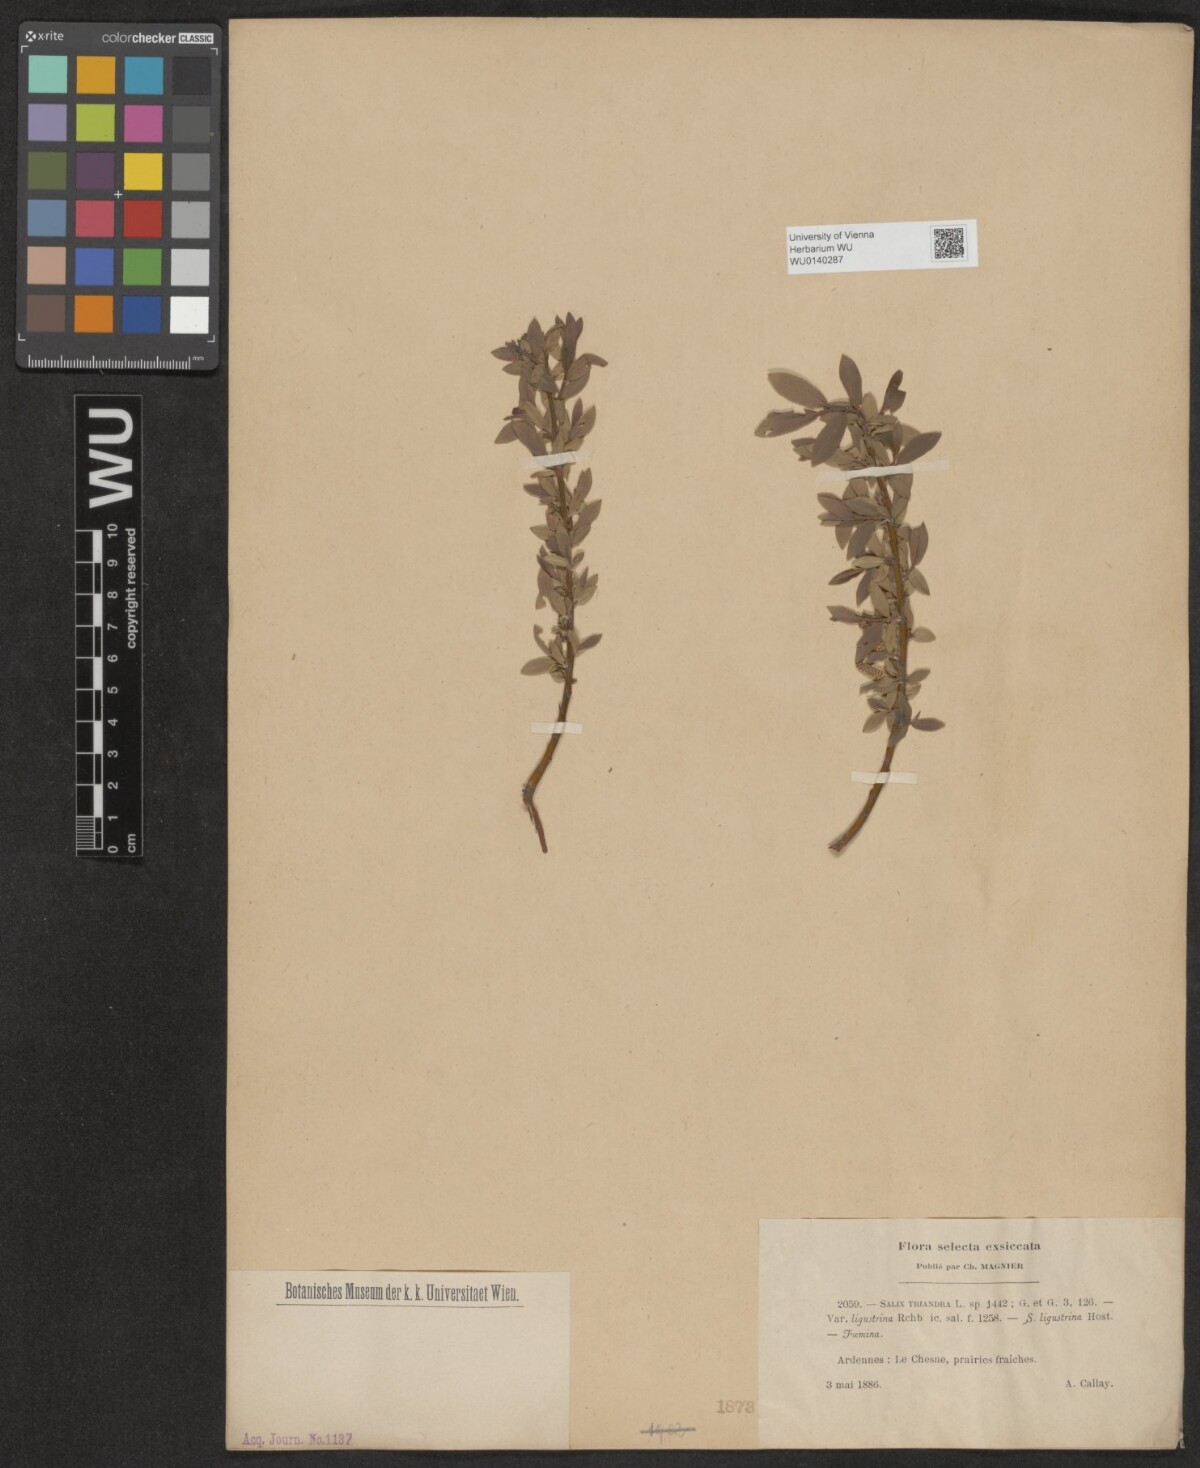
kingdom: Plantae
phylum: Tracheophyta
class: Magnoliopsida
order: Malpighiales
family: Salicaceae
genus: Salix
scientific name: Salix triandra
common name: Almond willow
